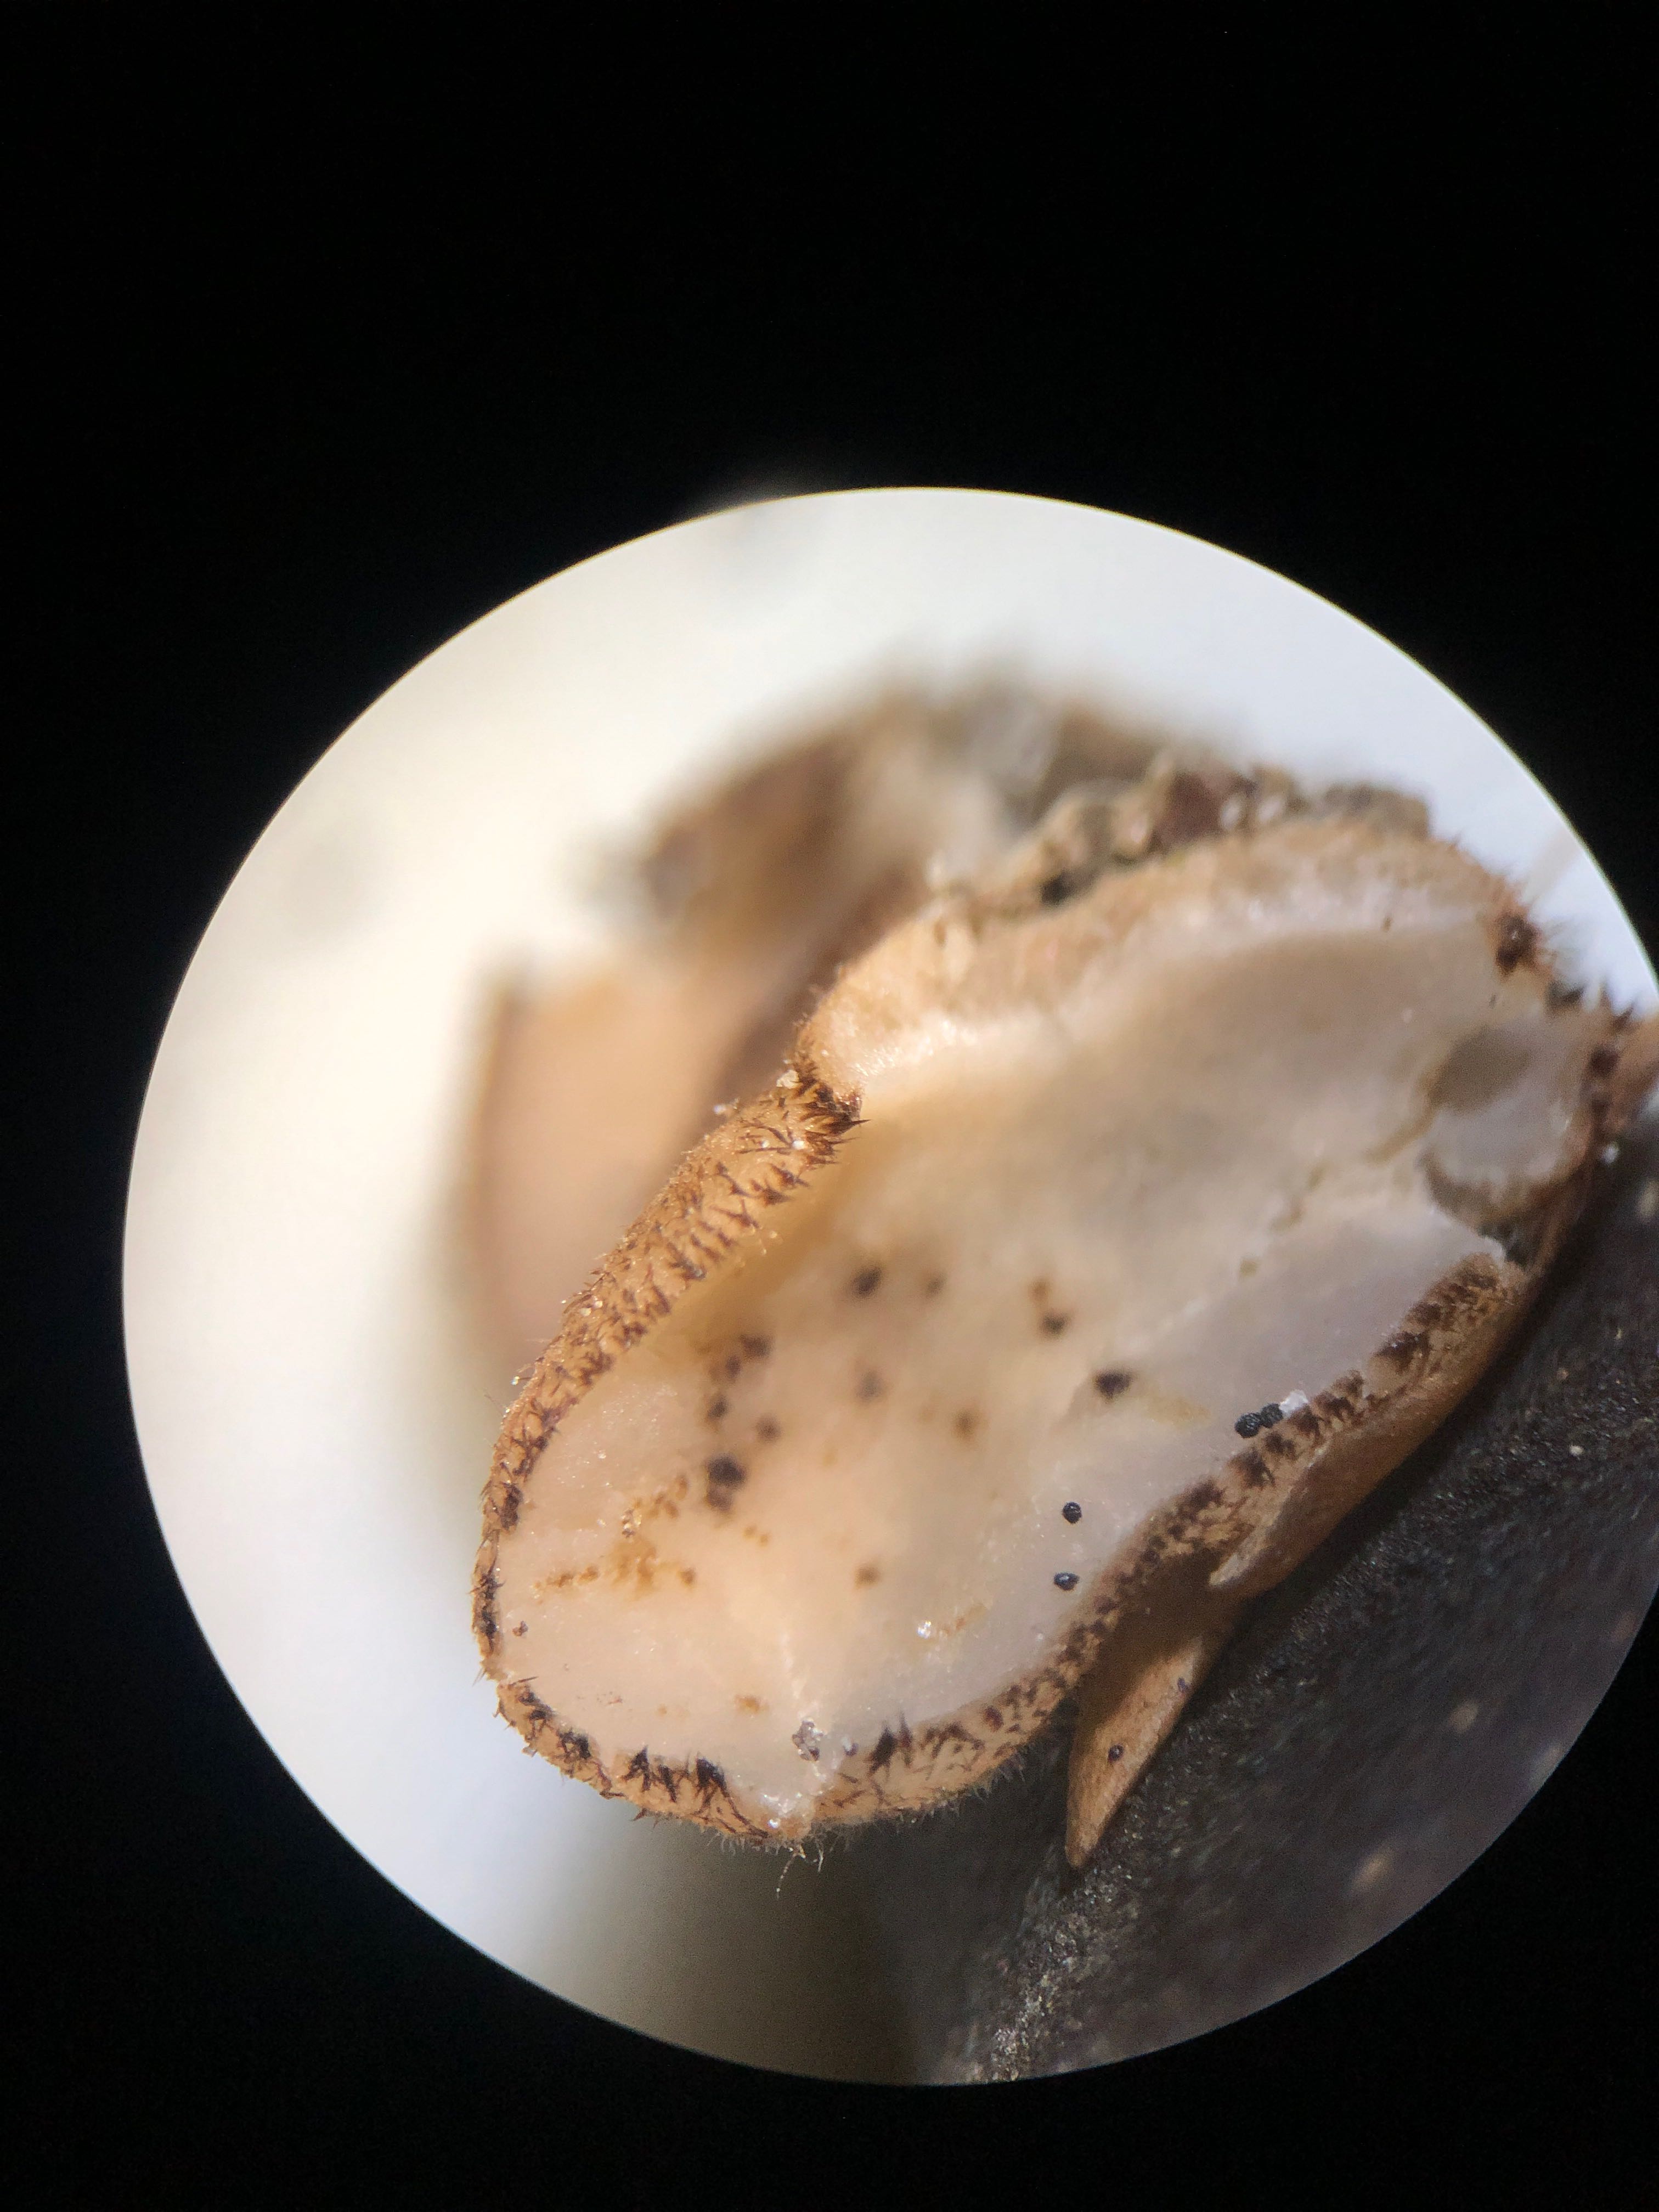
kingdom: Fungi
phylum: Ascomycota
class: Pezizomycetes
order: Pezizales
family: Pyronemataceae
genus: Trichophaea
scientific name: Trichophaea gregaria
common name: tensporet børstebæger
